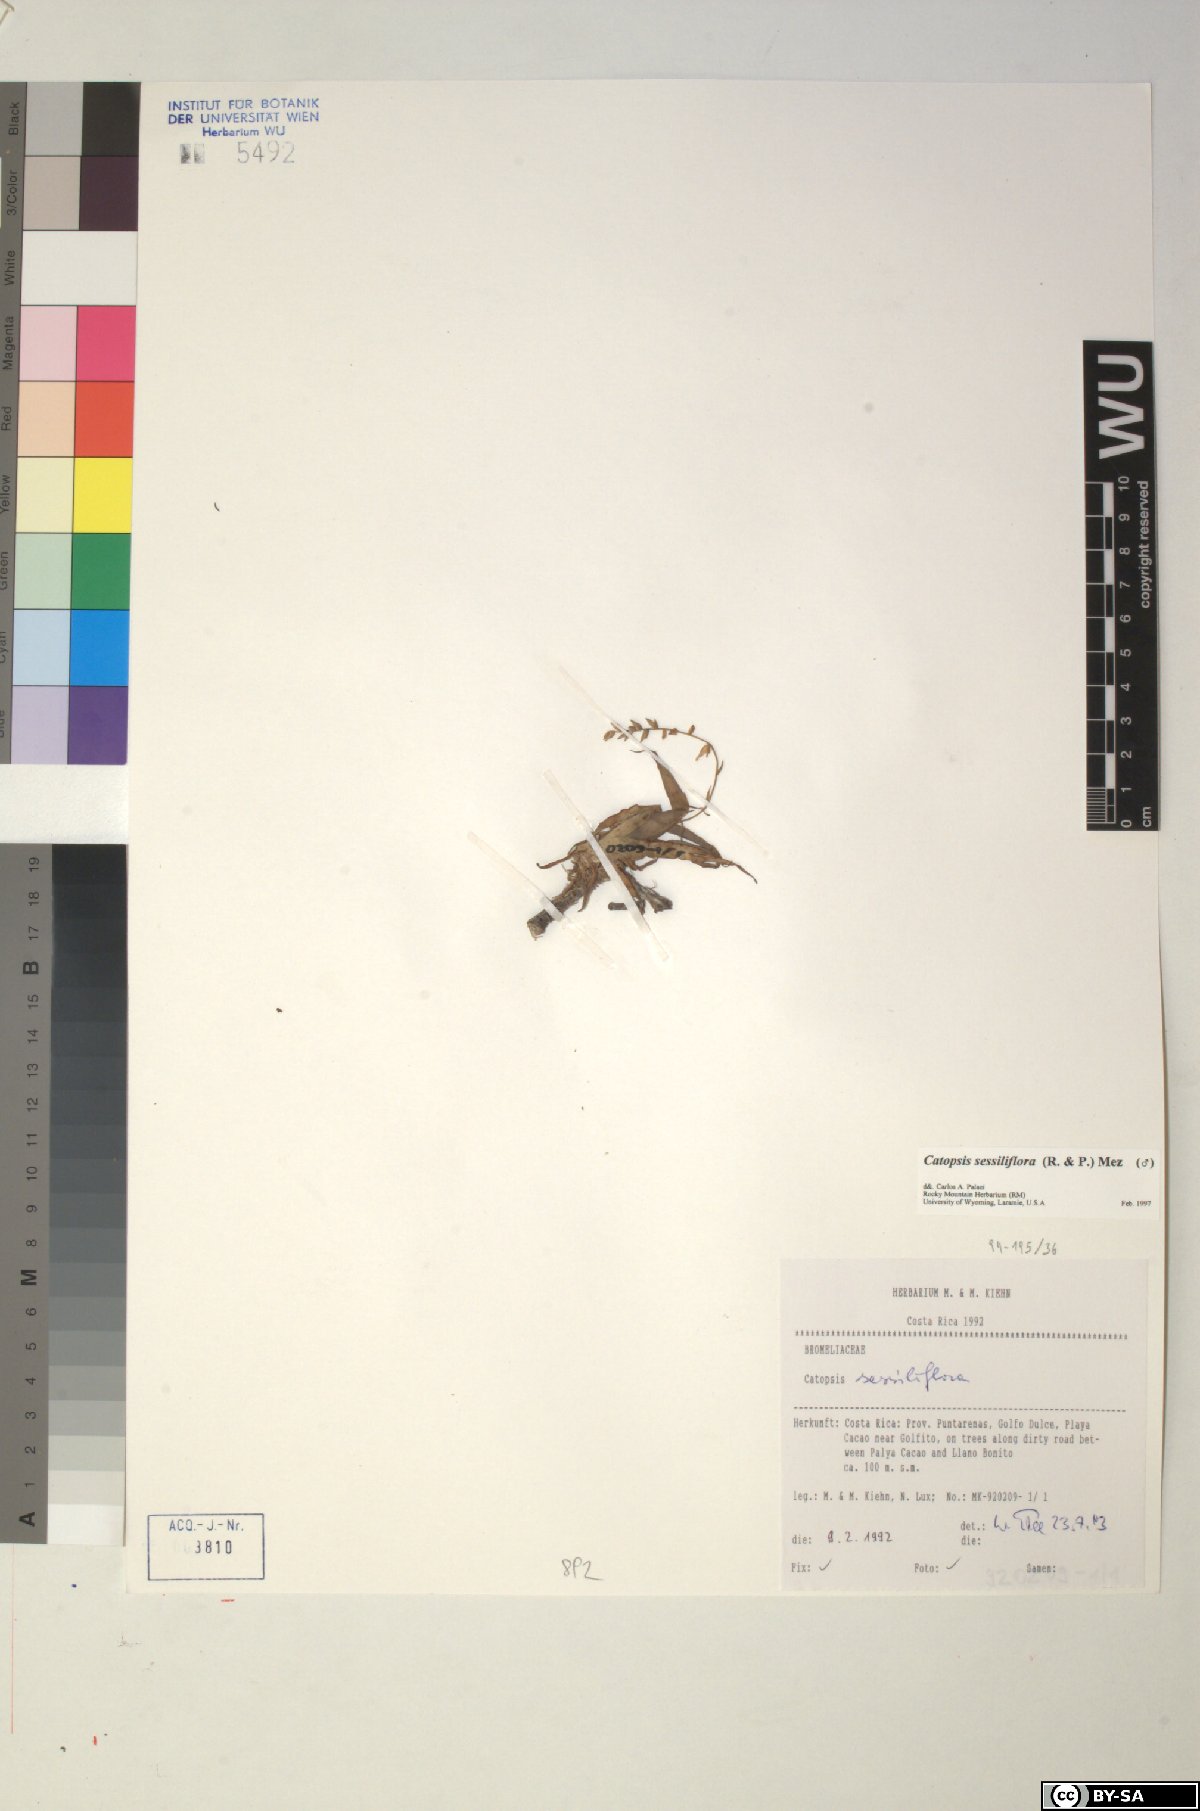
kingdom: Plantae
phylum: Tracheophyta
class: Liliopsida
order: Poales
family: Bromeliaceae
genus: Catopsis
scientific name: Catopsis sessiliflora
